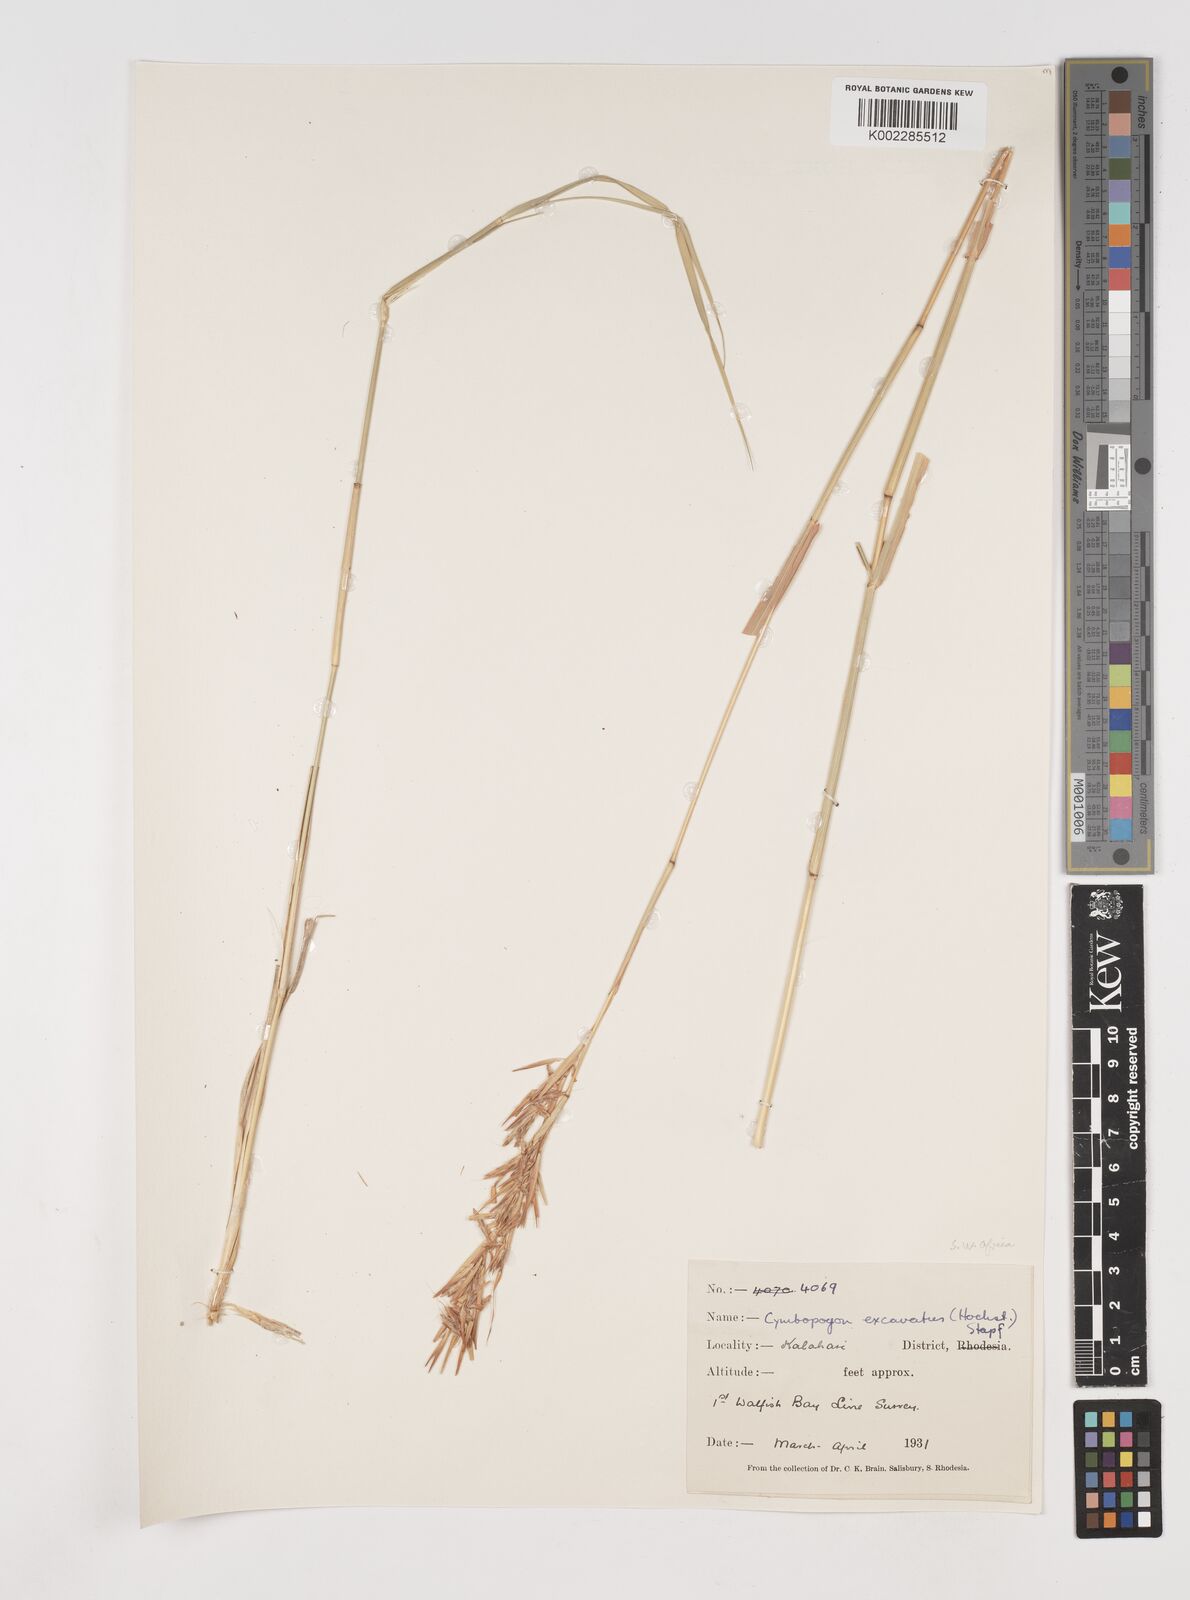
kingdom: Plantae
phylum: Tracheophyta
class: Liliopsida
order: Poales
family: Poaceae
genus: Cymbopogon
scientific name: Cymbopogon caesius
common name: Kachi grass
